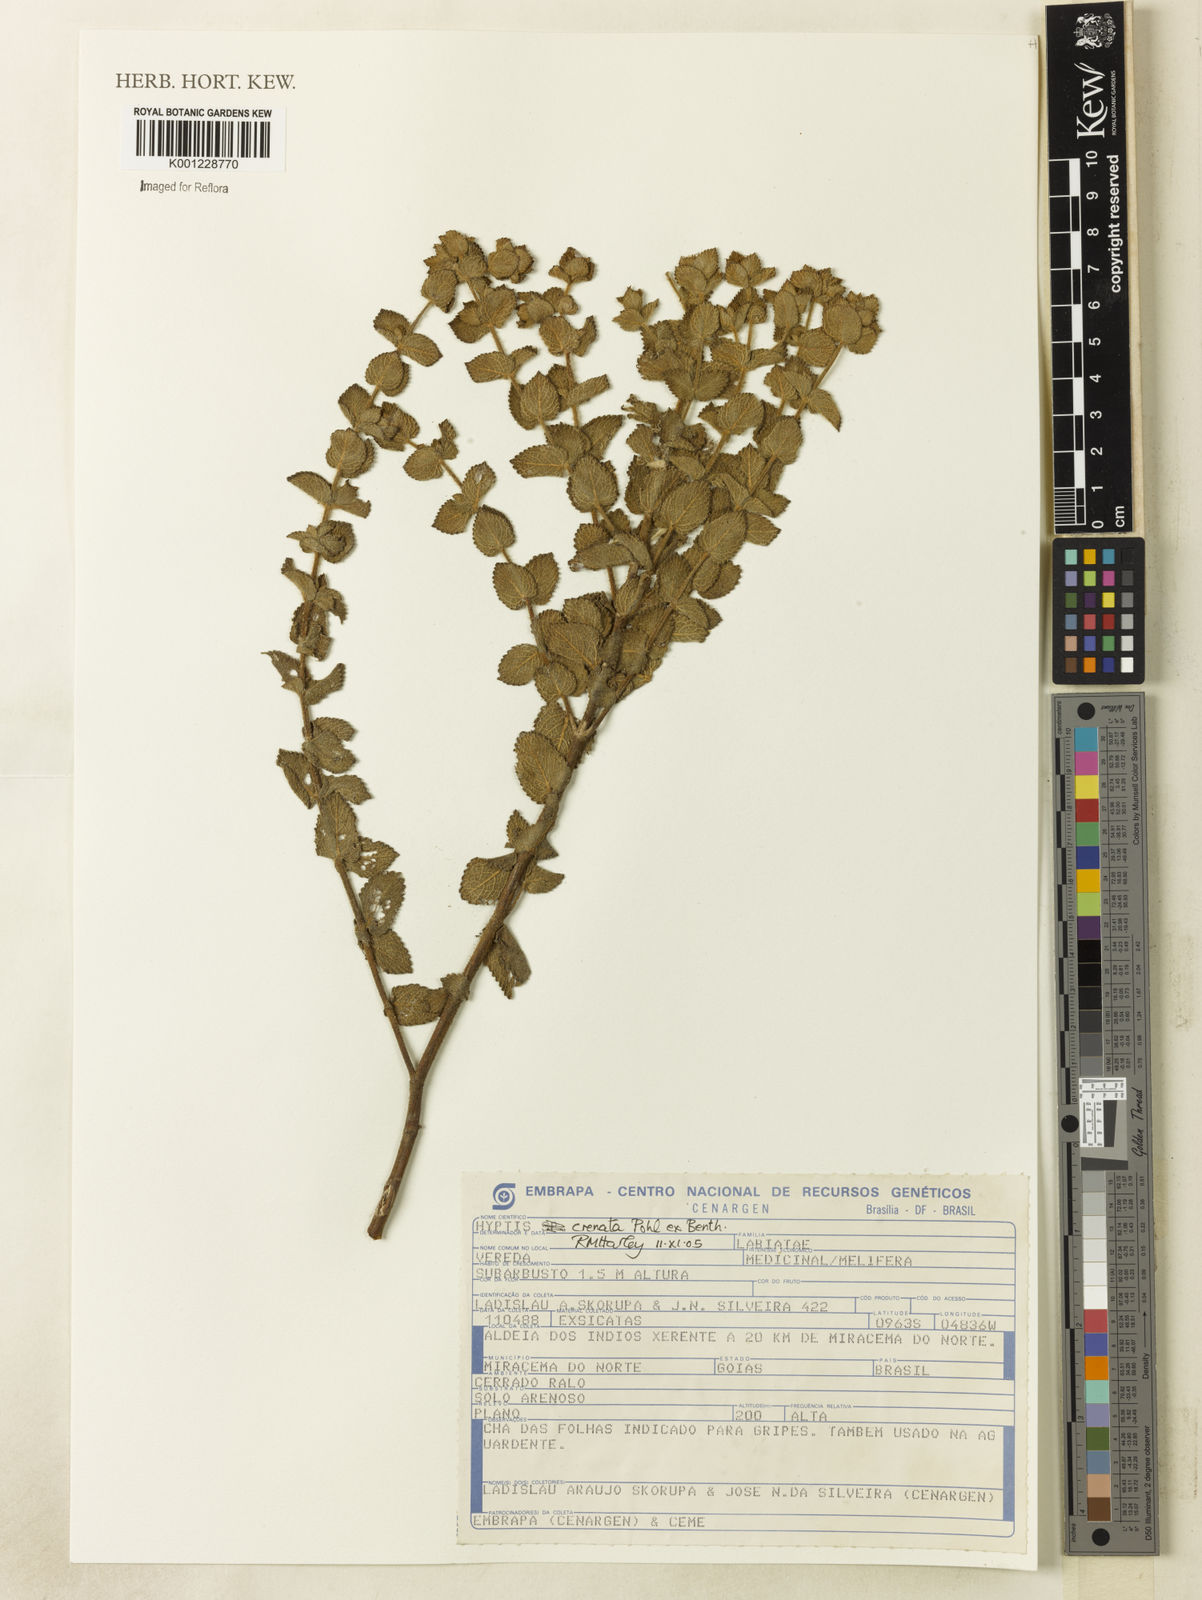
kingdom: Plantae
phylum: Tracheophyta
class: Magnoliopsida
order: Lamiales
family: Lamiaceae
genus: Hyptis
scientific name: Hyptis crenata
